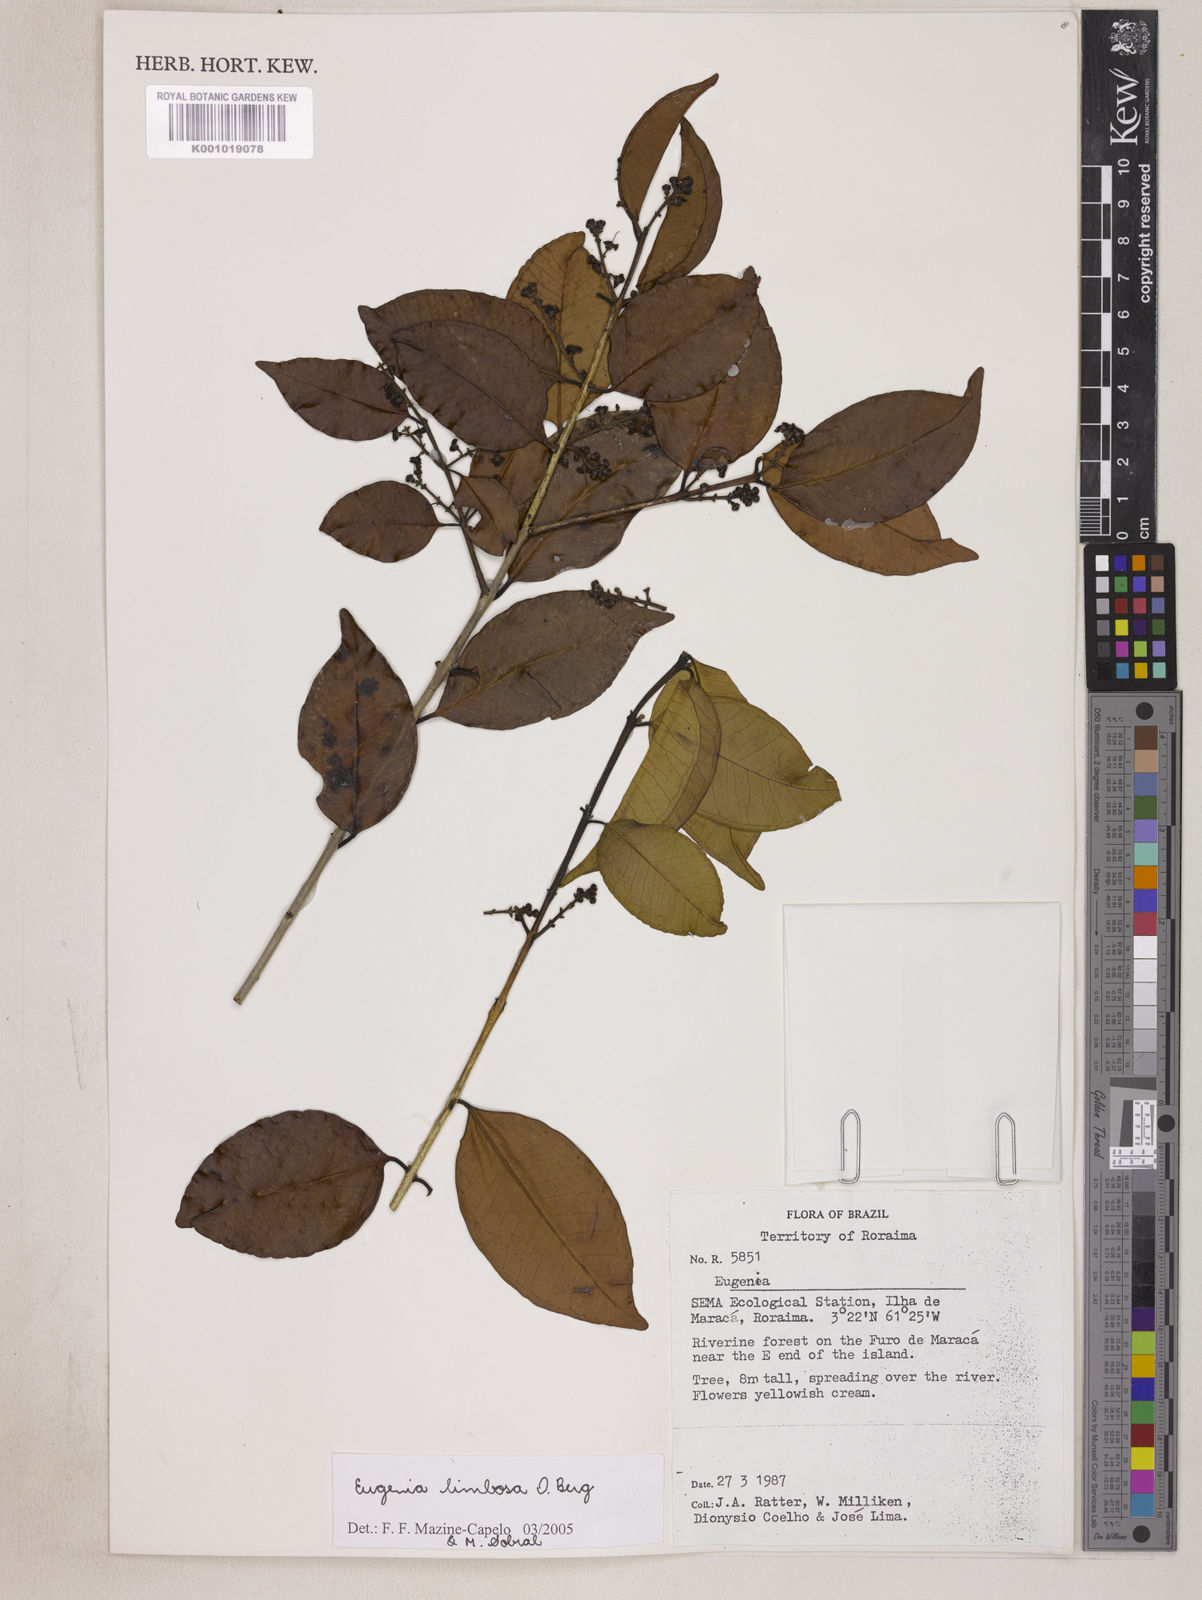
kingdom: Plantae
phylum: Tracheophyta
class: Magnoliopsida
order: Myrtales
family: Myrtaceae
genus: Eugenia
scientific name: Eugenia limbosa
